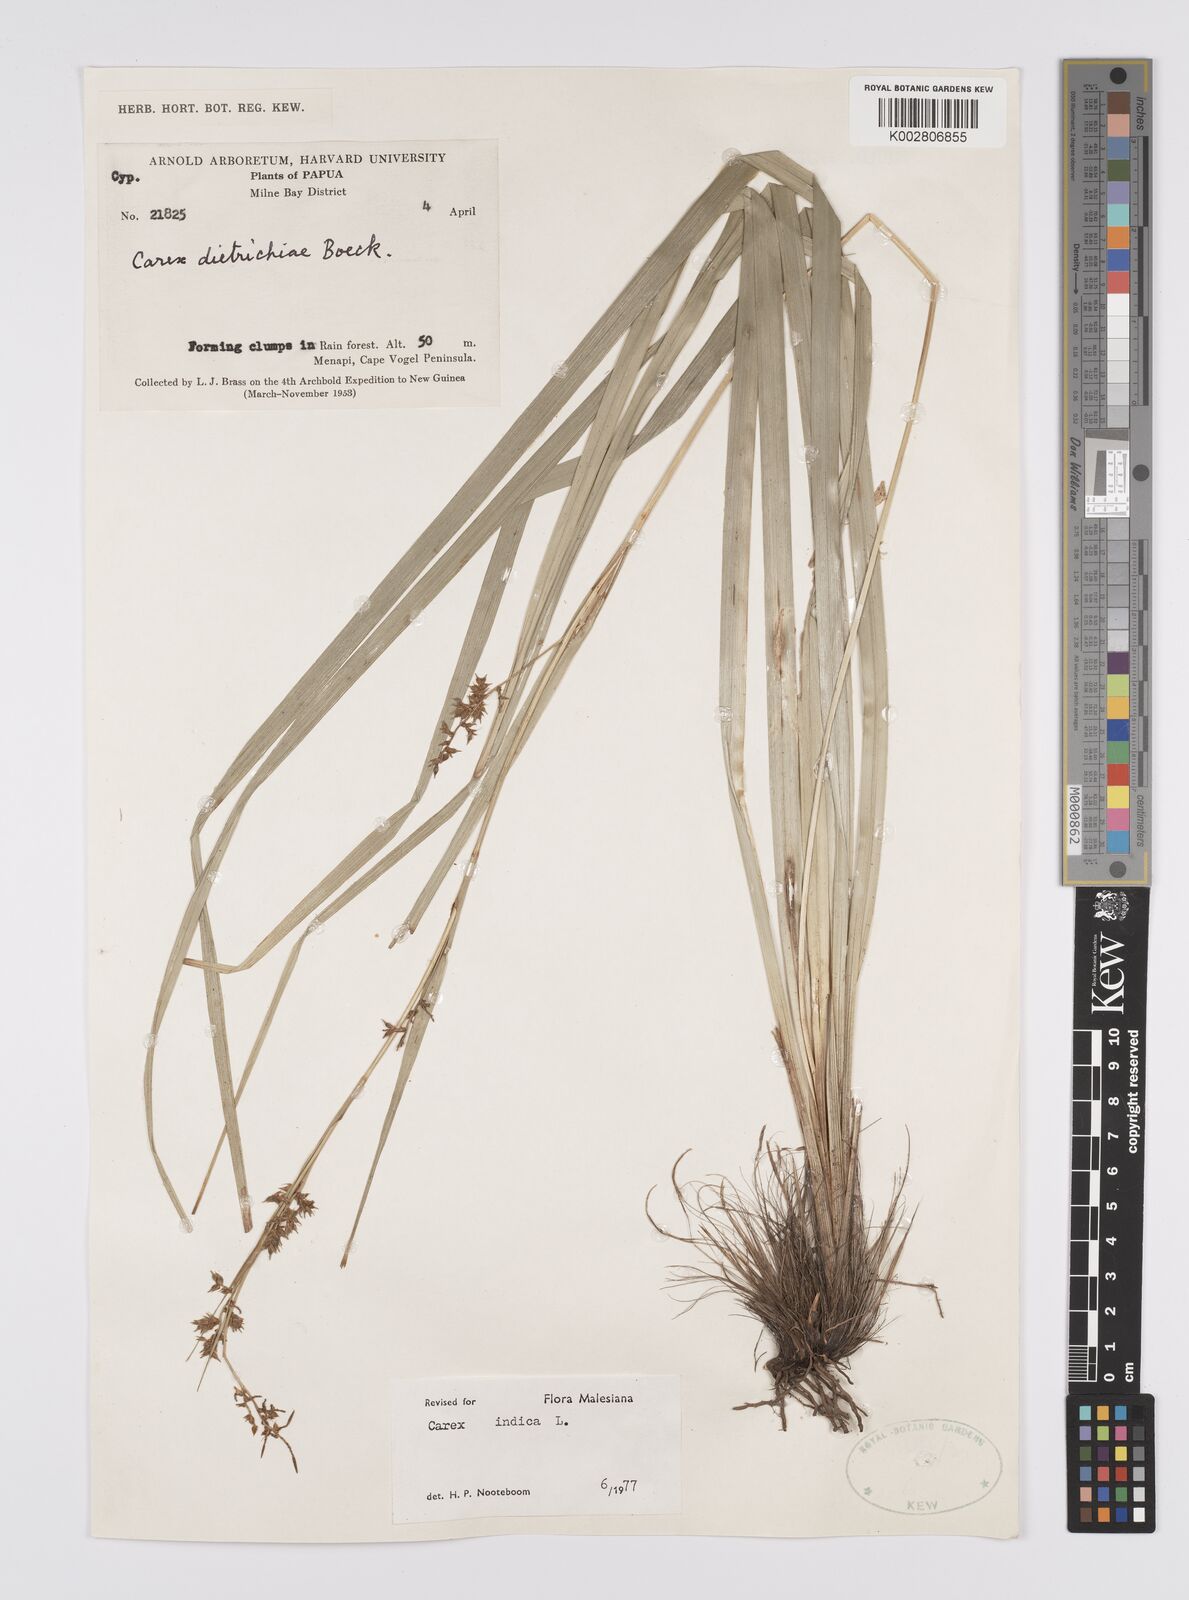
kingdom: Plantae
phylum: Tracheophyta
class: Liliopsida
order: Poales
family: Cyperaceae
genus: Carex
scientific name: Carex indica
